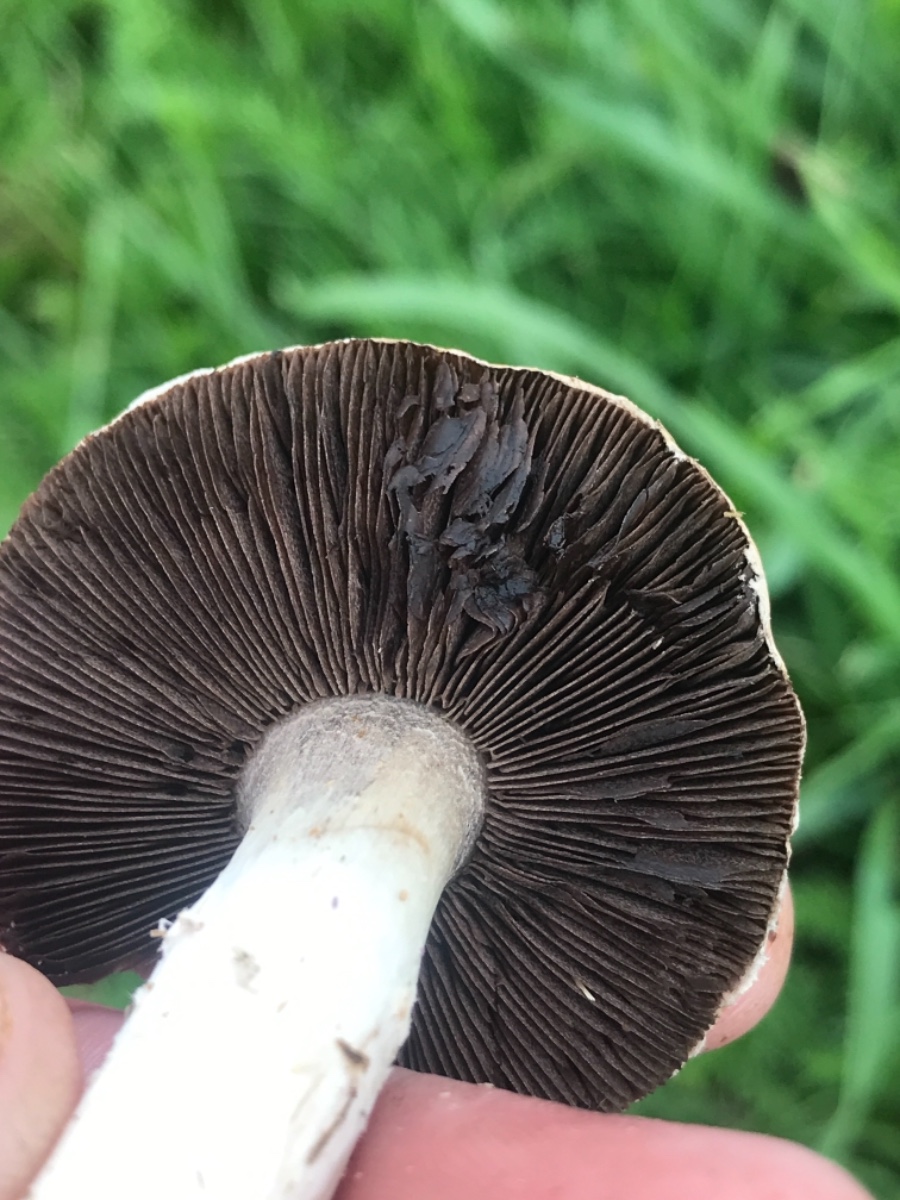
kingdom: Fungi
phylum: Basidiomycota
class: Agaricomycetes
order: Agaricales
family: Agaricaceae
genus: Agaricus
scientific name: Agaricus
